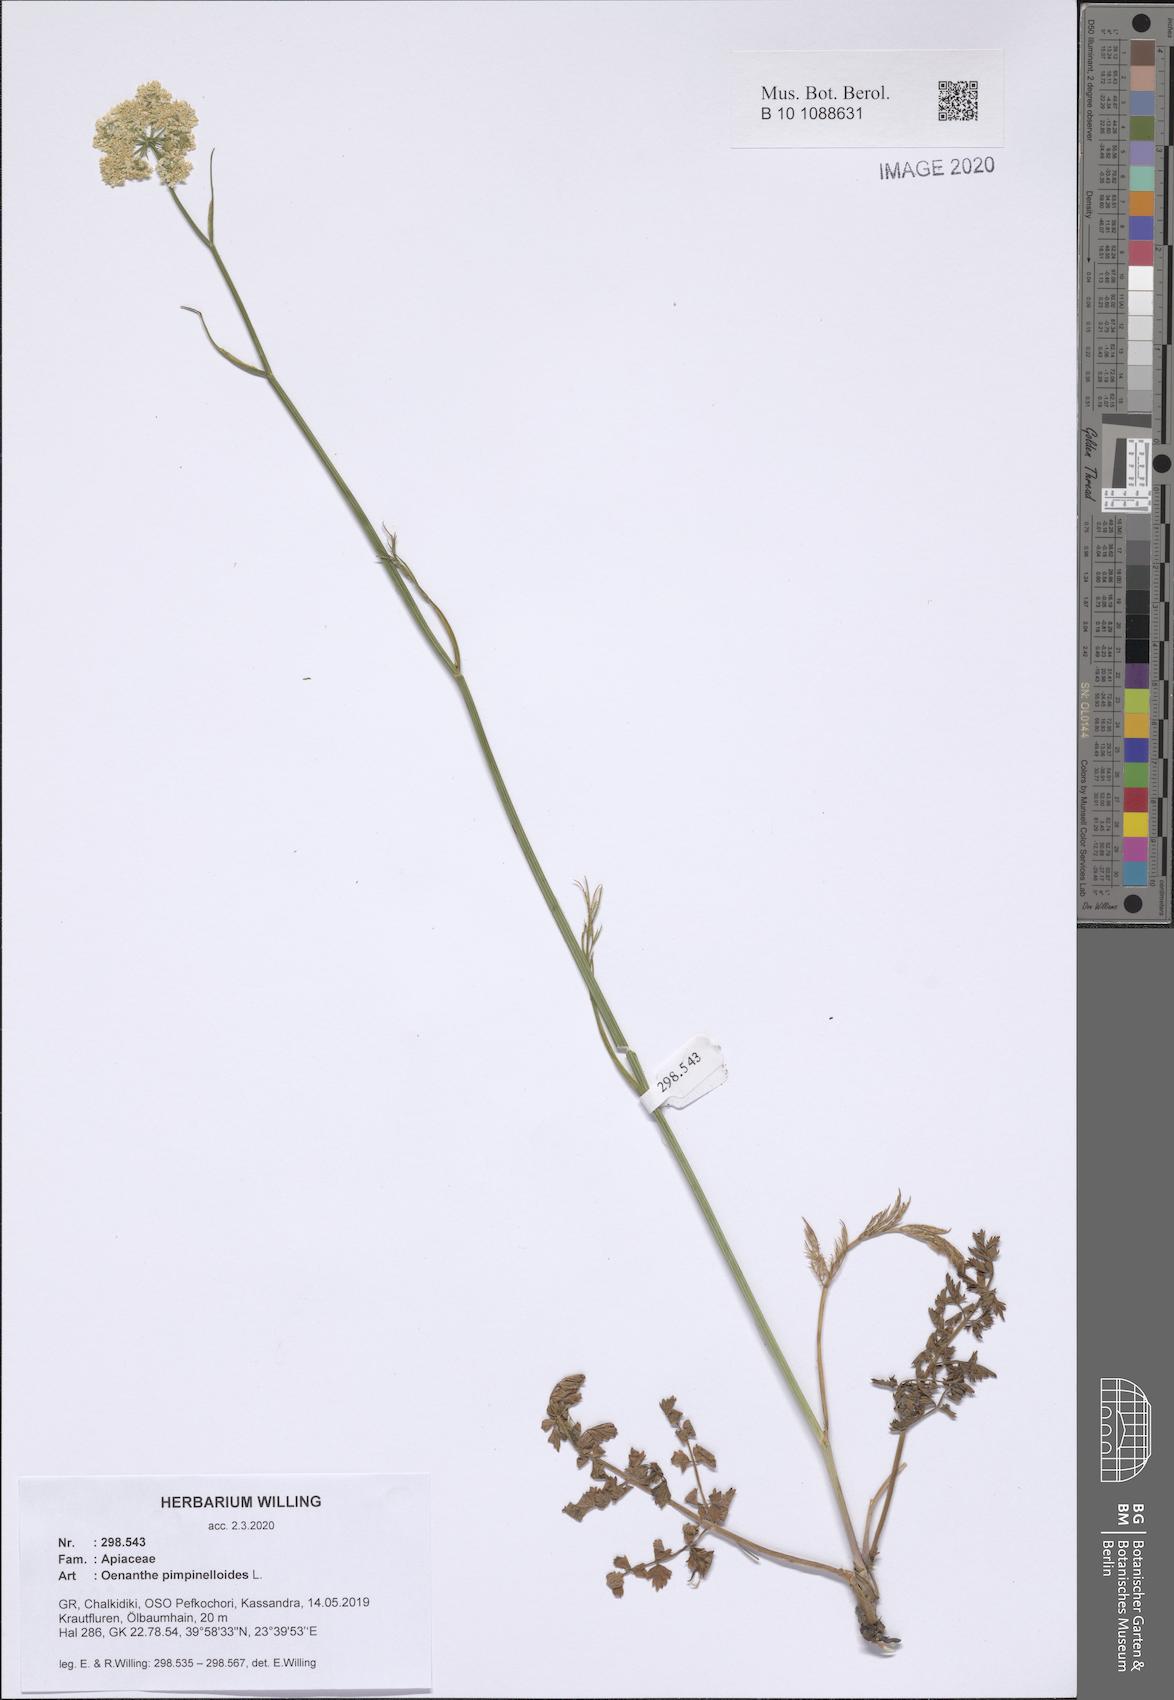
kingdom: Plantae
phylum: Tracheophyta
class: Magnoliopsida
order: Apiales
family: Apiaceae
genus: Oenanthe
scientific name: Oenanthe pimpinelloides
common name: Corky-fruited water-dropwort
